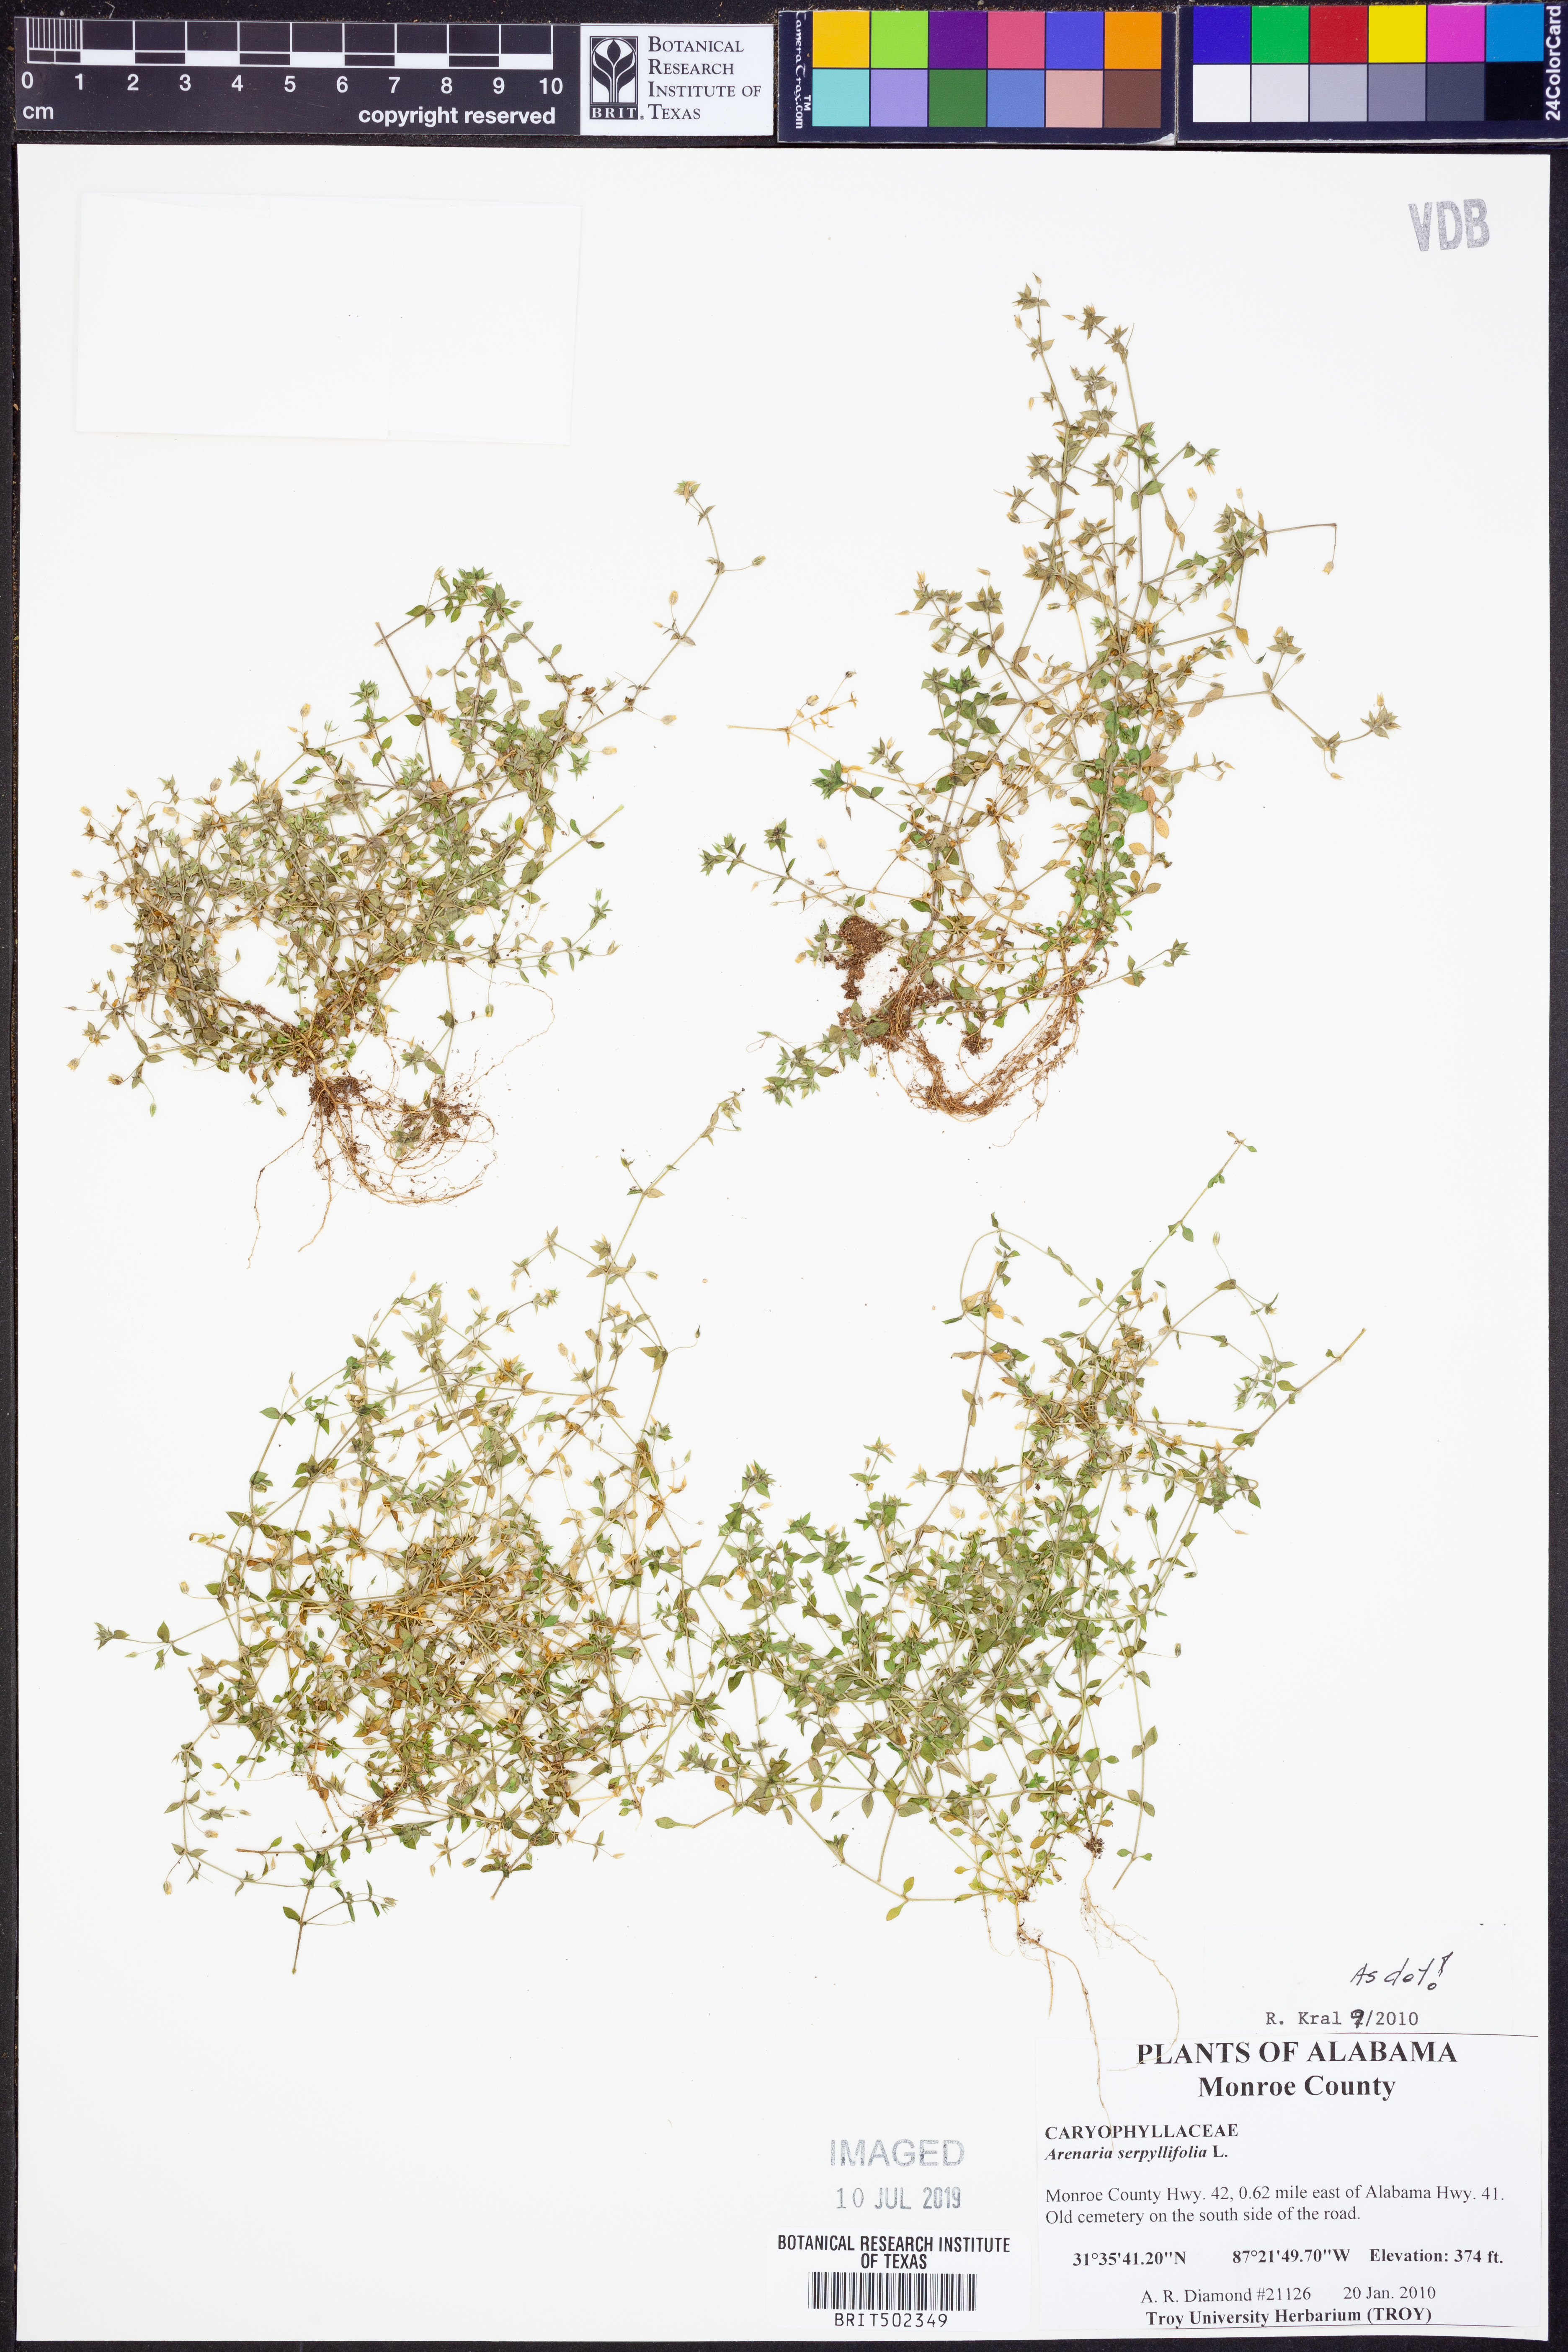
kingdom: Plantae
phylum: Tracheophyta
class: Magnoliopsida
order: Caryophyllales
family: Caryophyllaceae
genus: Arenaria
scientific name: Arenaria serpyllifolia
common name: Thyme-leaved sandwort
